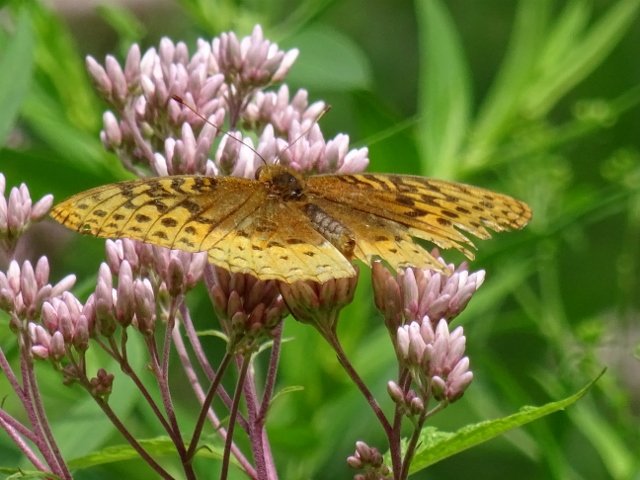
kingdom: Animalia
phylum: Arthropoda
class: Insecta
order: Lepidoptera
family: Nymphalidae
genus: Speyeria
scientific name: Speyeria cybele
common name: Great Spangled Fritillary
